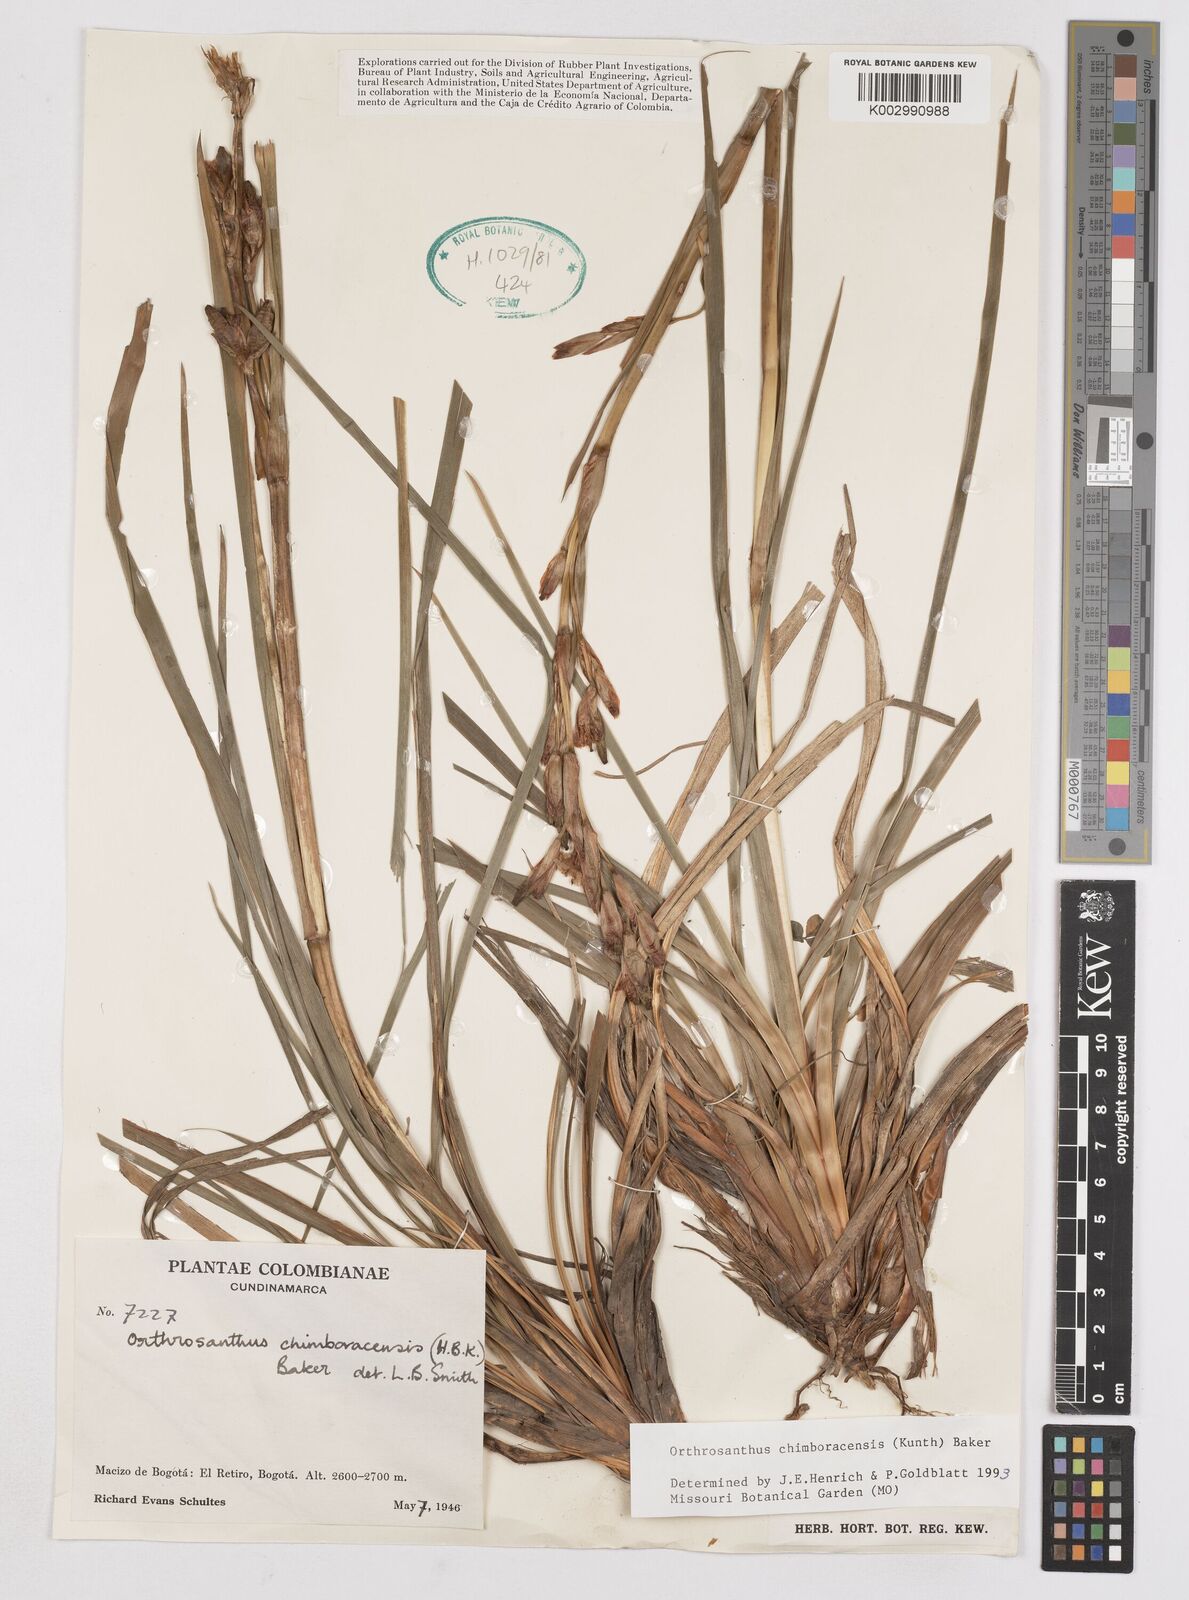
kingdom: Plantae
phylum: Tracheophyta
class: Liliopsida
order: Asparagales
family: Iridaceae
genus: Orthrosanthus
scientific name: Orthrosanthus chimboracensis
